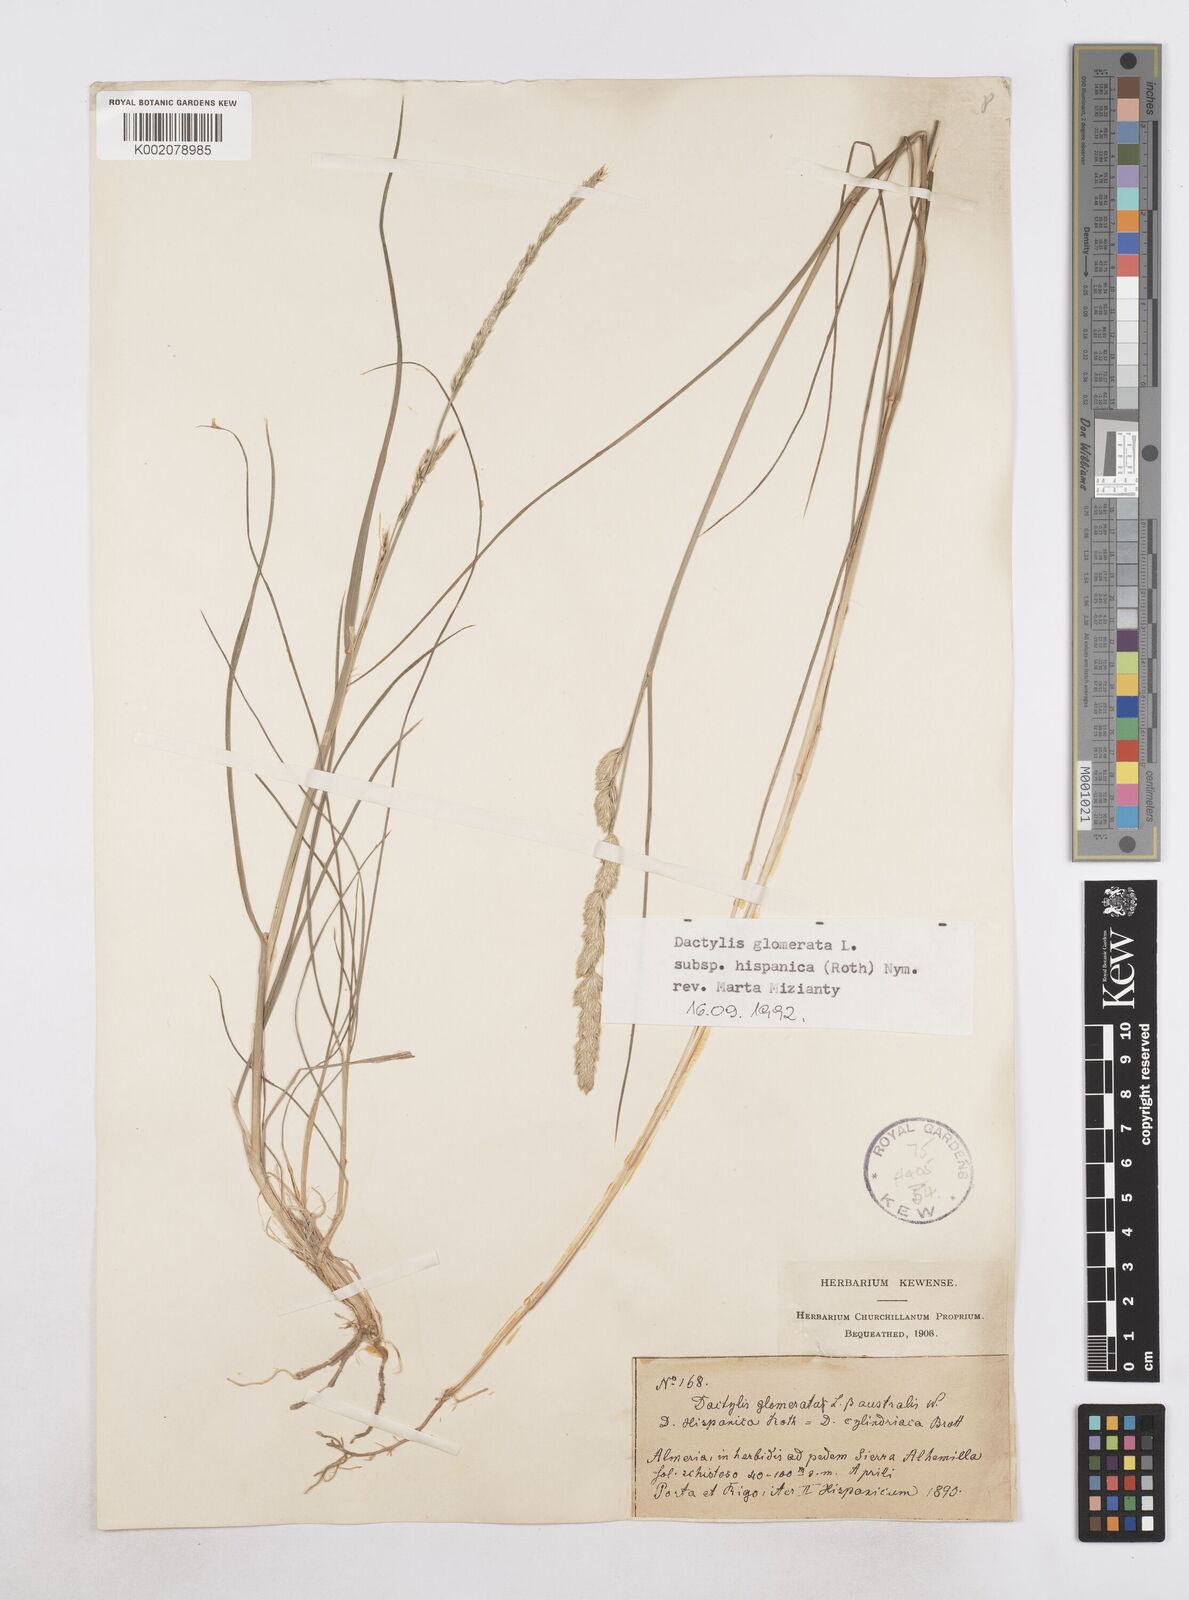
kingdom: Plantae
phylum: Tracheophyta
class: Liliopsida
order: Poales
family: Poaceae
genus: Dactylis
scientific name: Dactylis glomerata
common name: Orchardgrass
